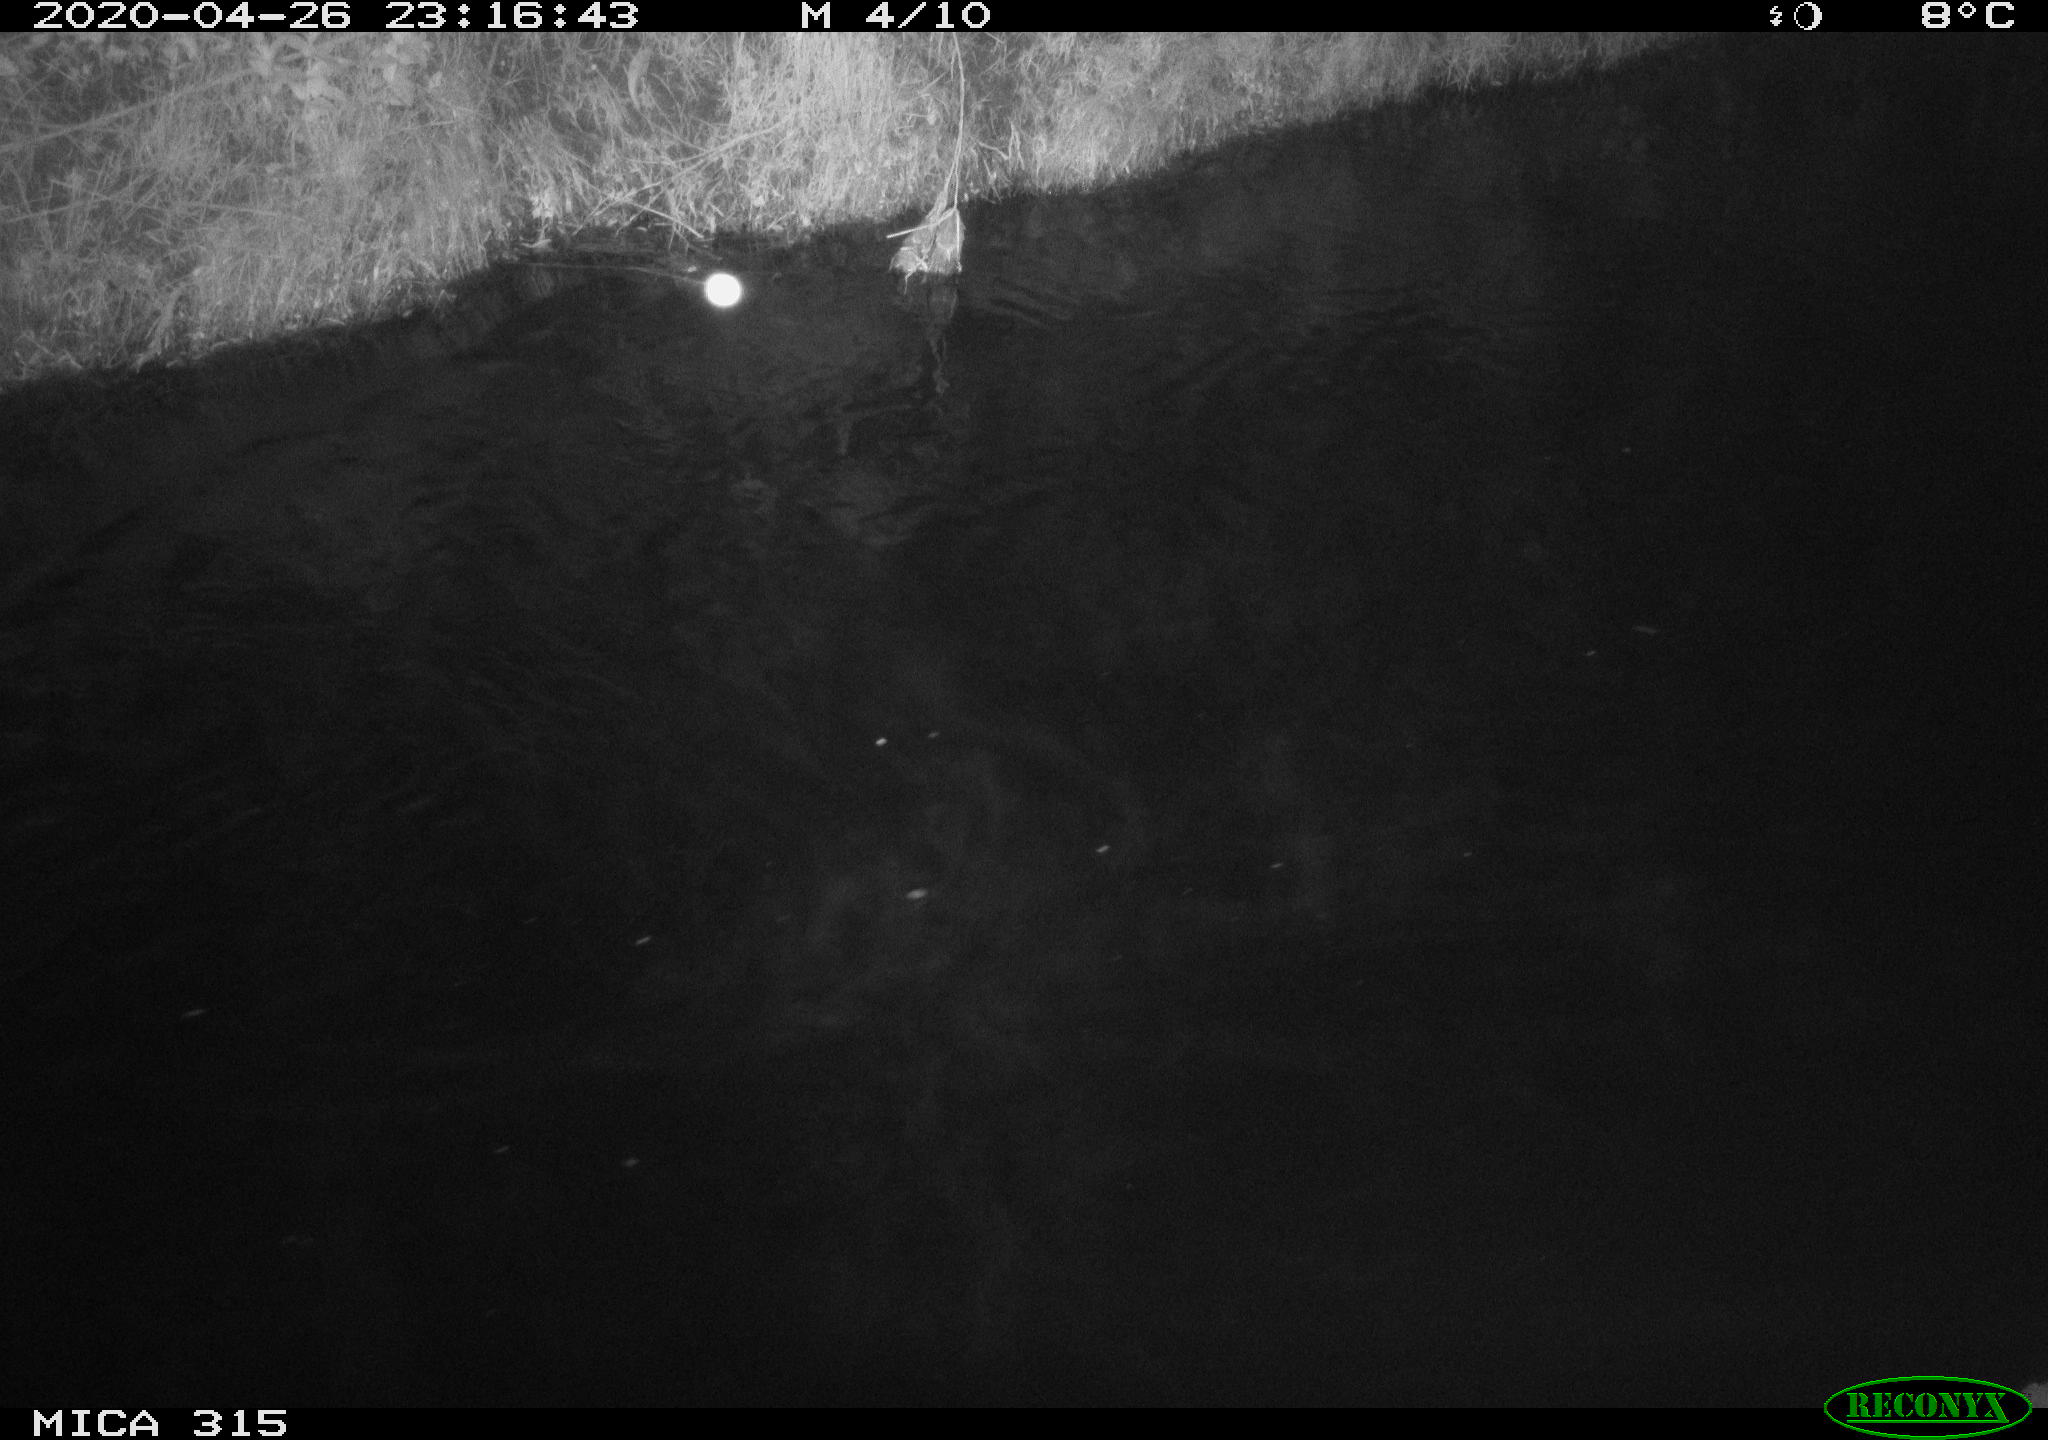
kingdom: Animalia
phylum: Chordata
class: Aves
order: Anseriformes
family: Anatidae
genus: Anas
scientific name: Anas platyrhynchos
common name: Mallard
